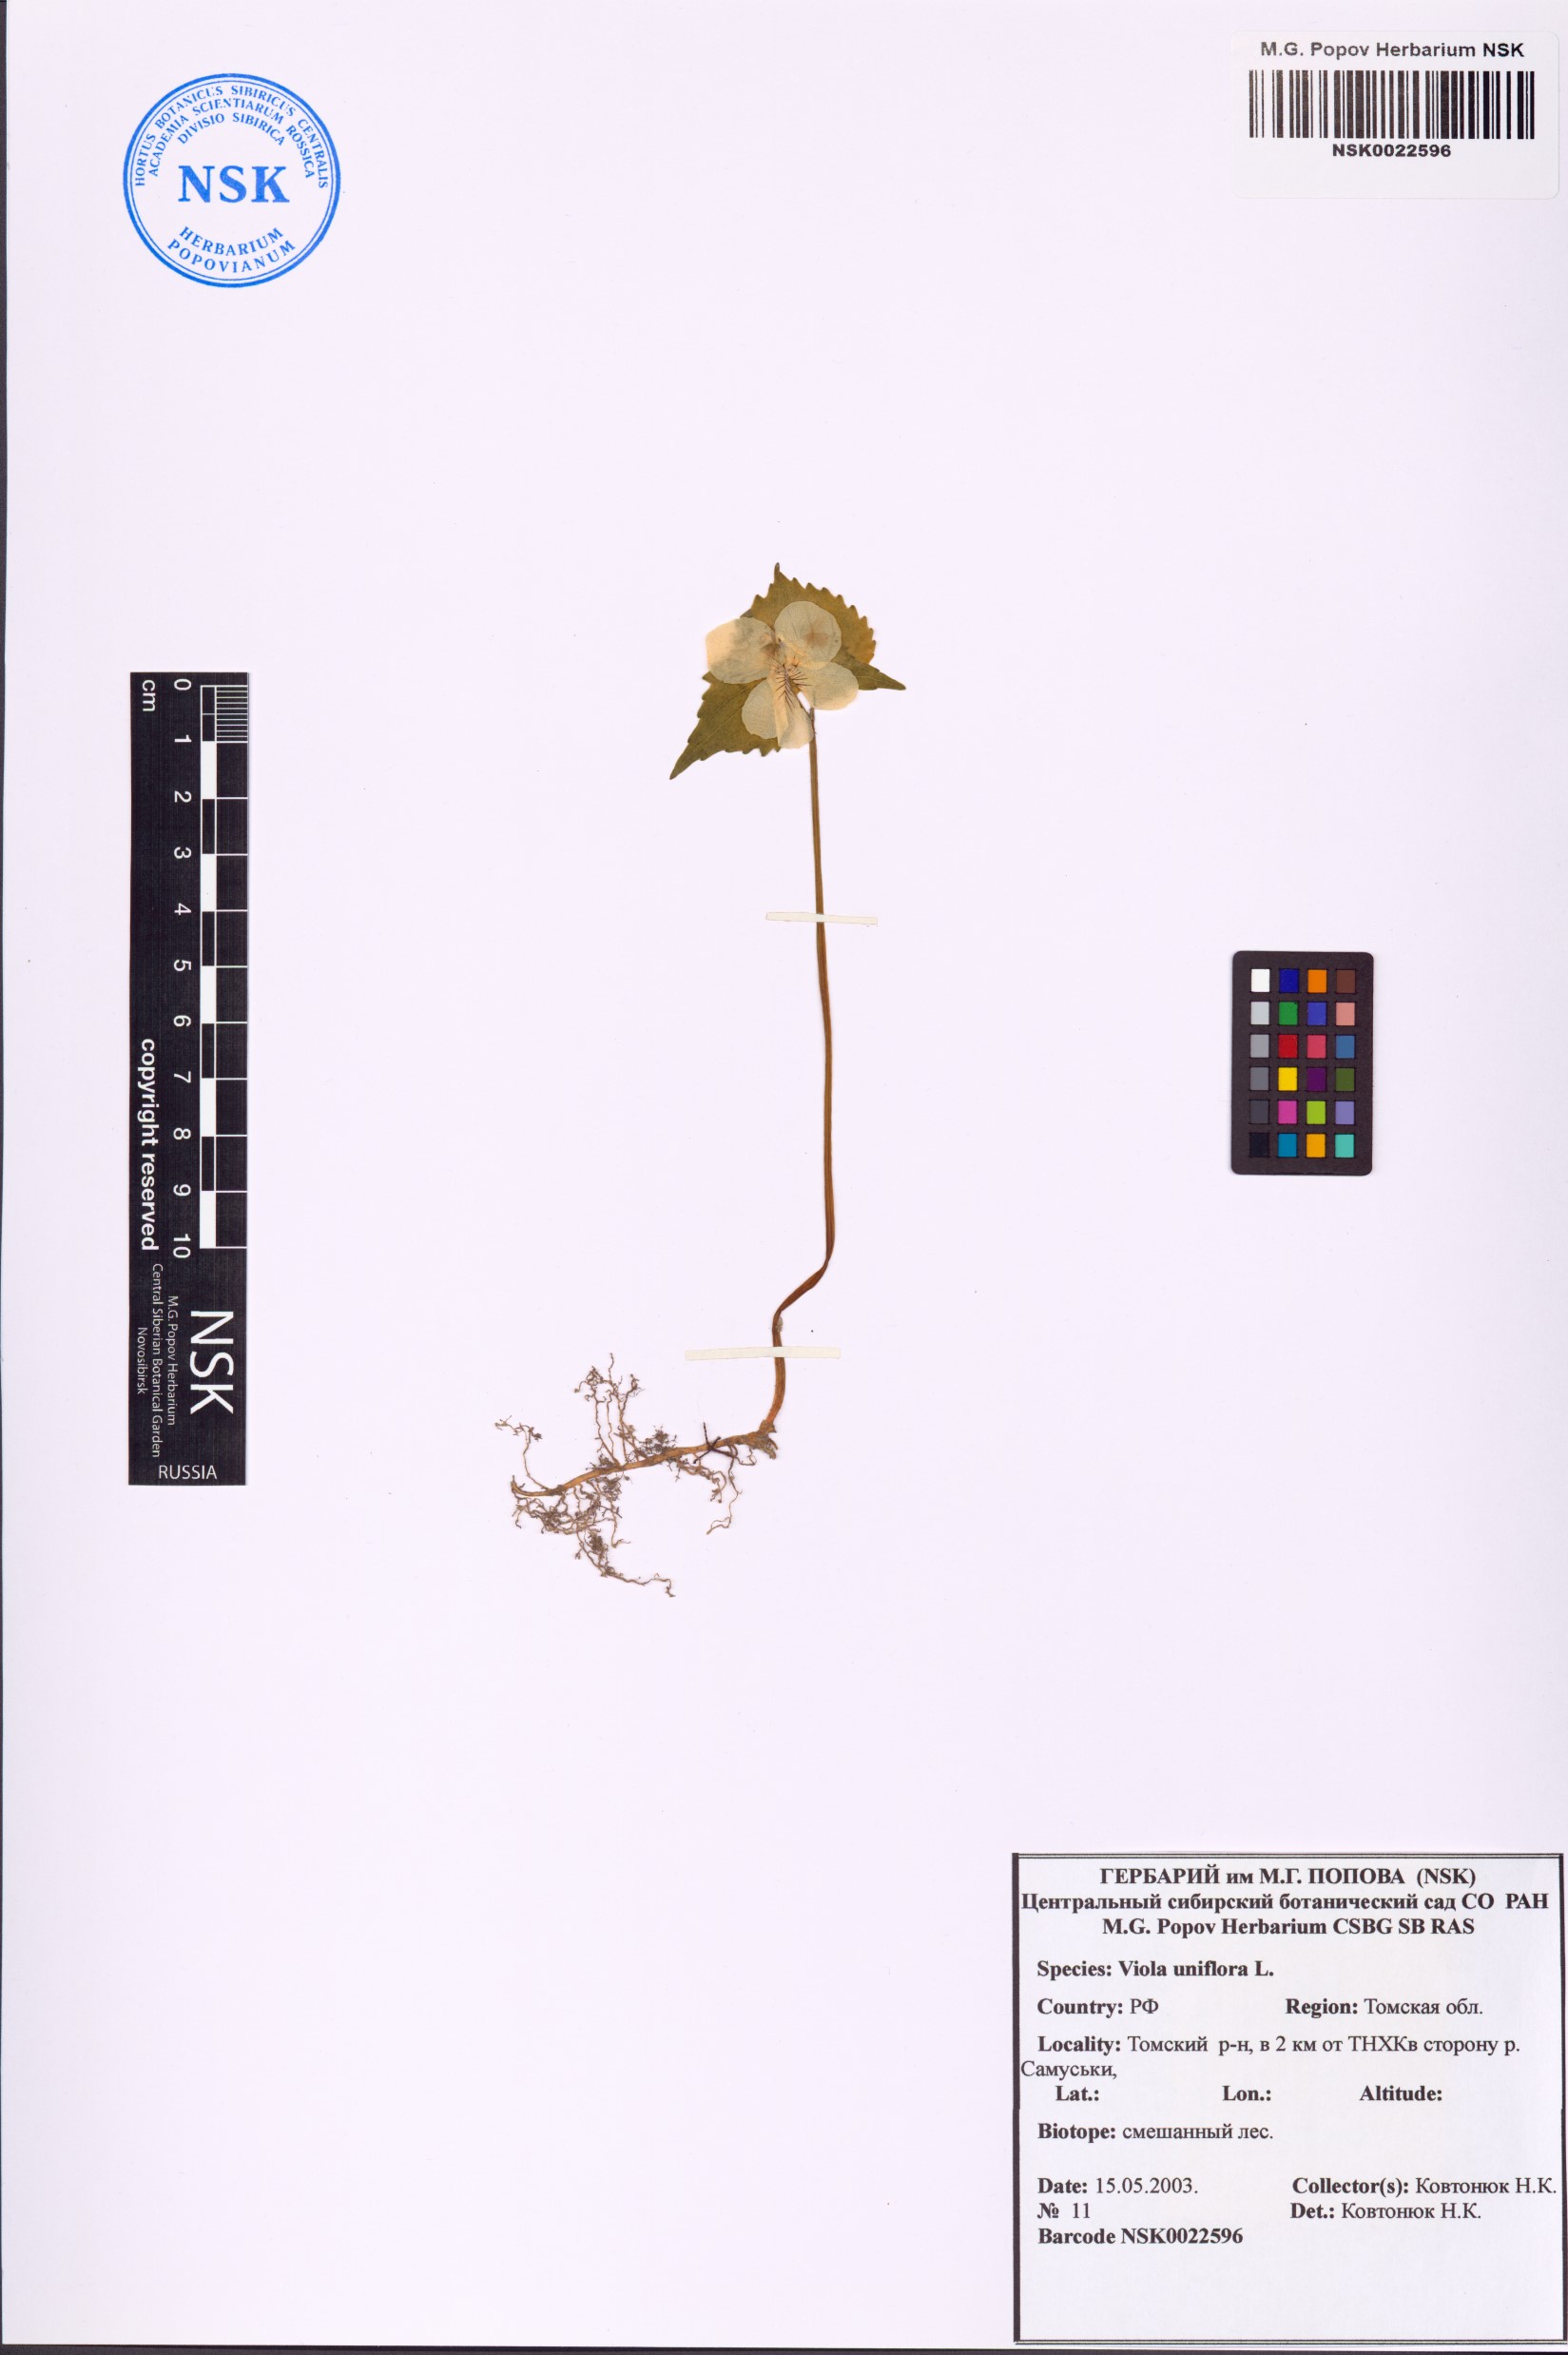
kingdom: Plantae
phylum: Tracheophyta
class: Magnoliopsida
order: Malpighiales
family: Violaceae
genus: Viola
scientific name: Viola uniflora
